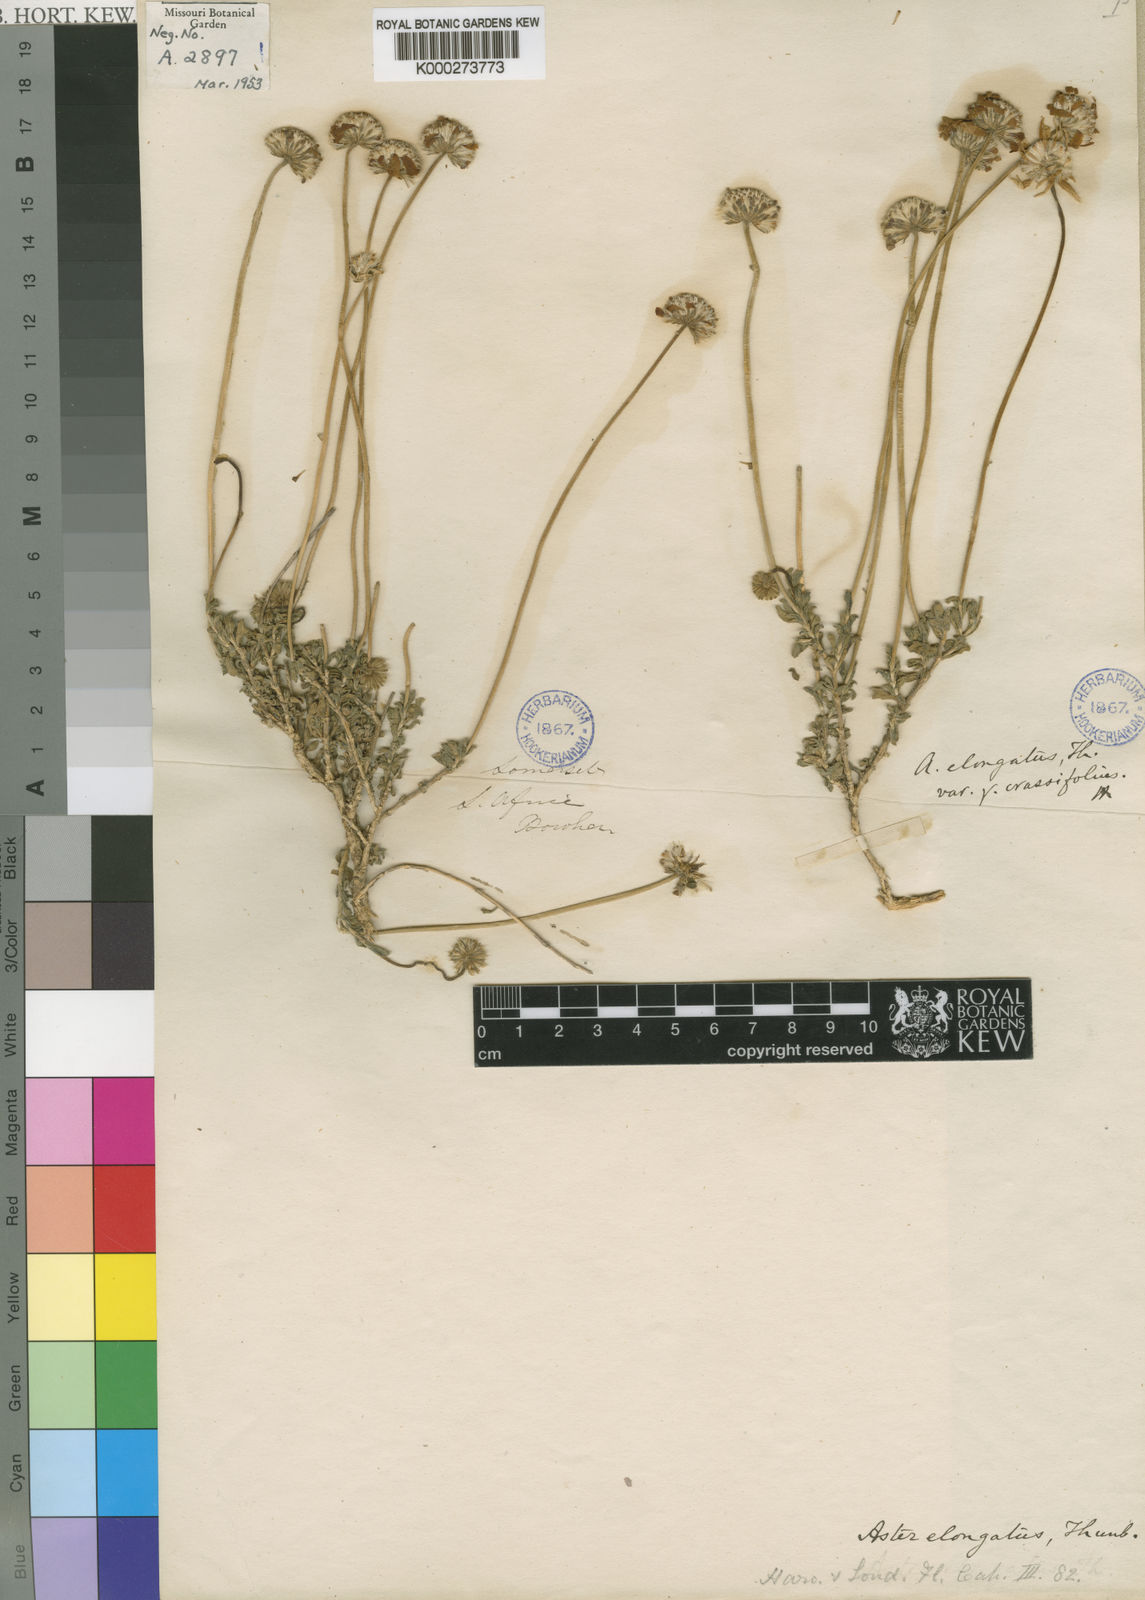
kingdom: Plantae
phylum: Tracheophyta
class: Magnoliopsida
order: Asterales
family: Asteraceae
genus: Felicia
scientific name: Felicia elongata
